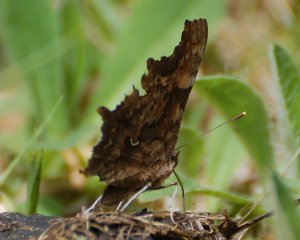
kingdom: Animalia
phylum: Arthropoda
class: Insecta
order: Lepidoptera
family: Nymphalidae
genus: Polygonia
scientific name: Polygonia faunus
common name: Green Comma
